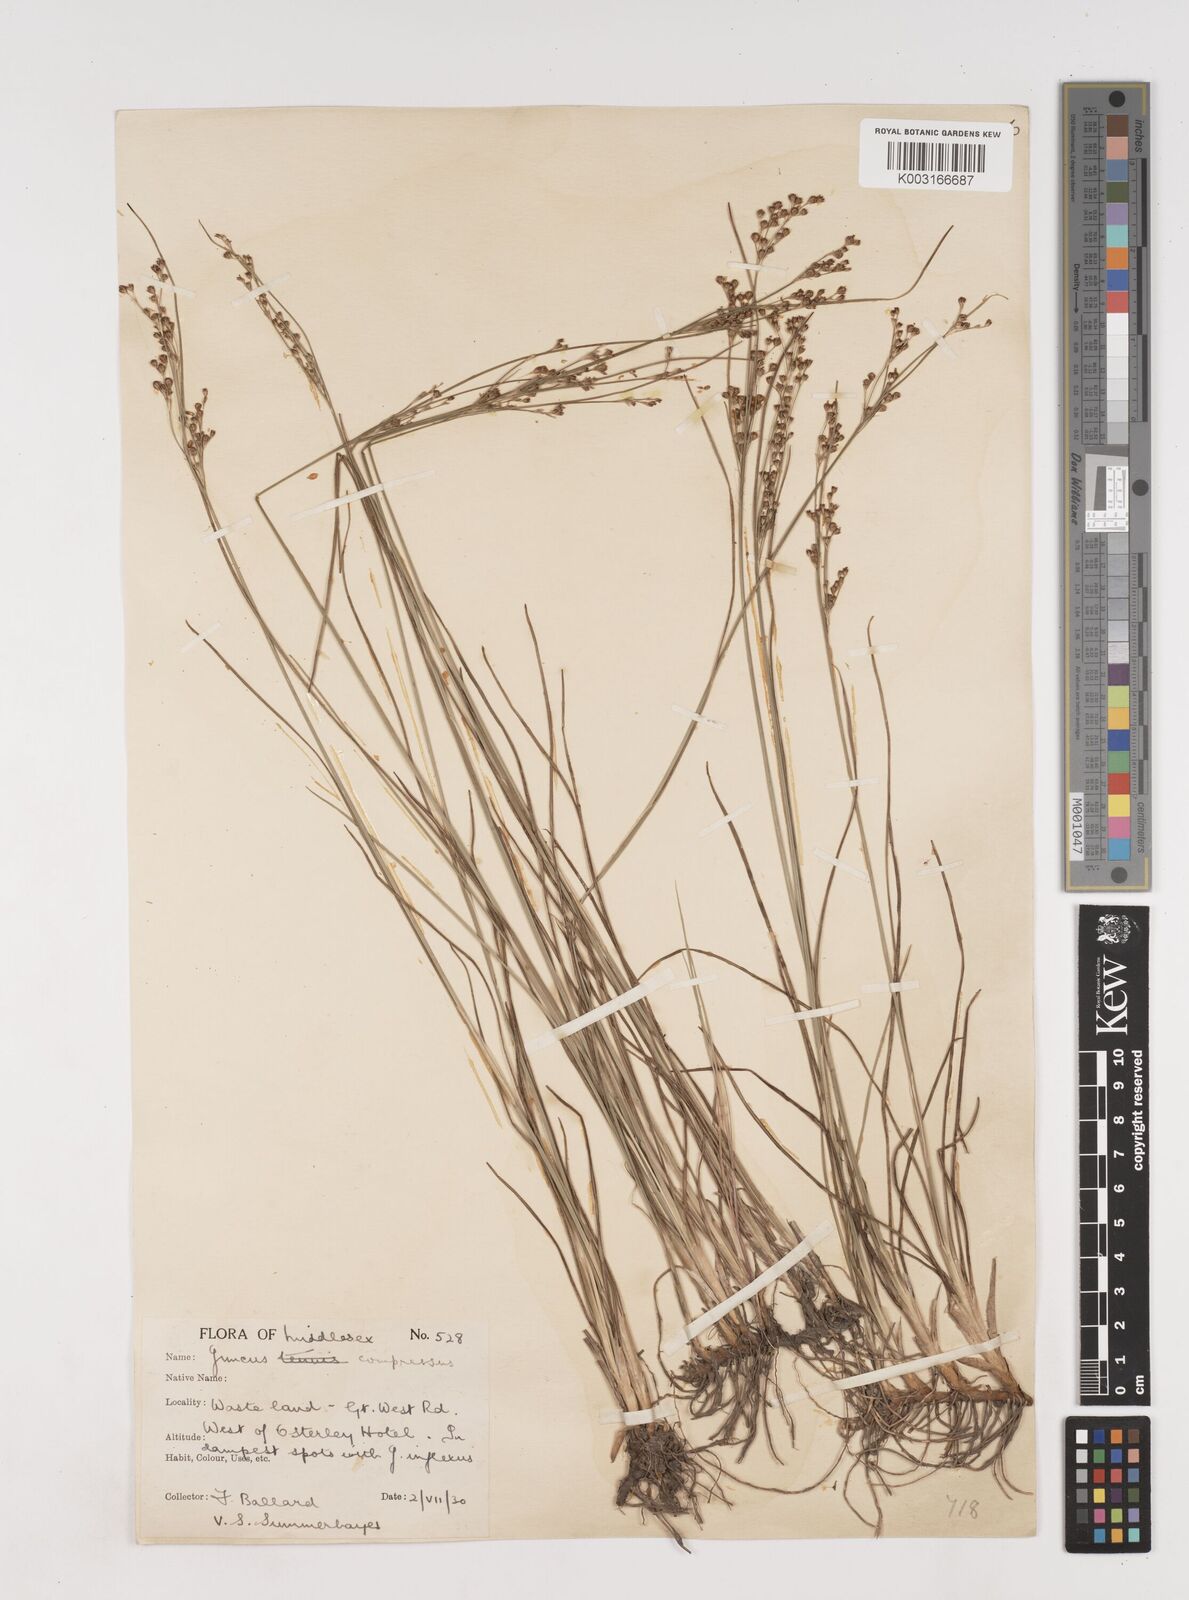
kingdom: Plantae
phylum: Tracheophyta
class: Liliopsida
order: Poales
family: Juncaceae
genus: Juncus
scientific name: Juncus compressus
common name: Round-fruited rush
